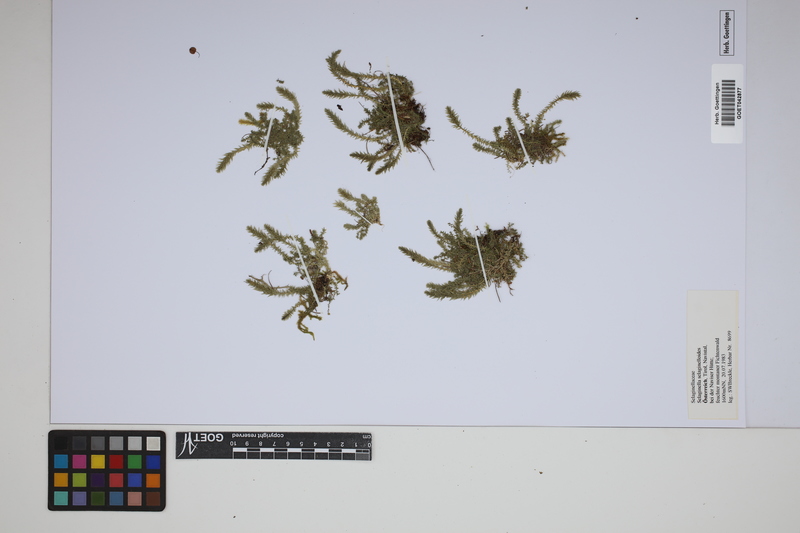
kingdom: Plantae
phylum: Tracheophyta
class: Lycopodiopsida
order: Selaginellales
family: Selaginellaceae
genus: Selaginella
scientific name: Selaginella selaginoides
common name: Prickly mountain-moss
